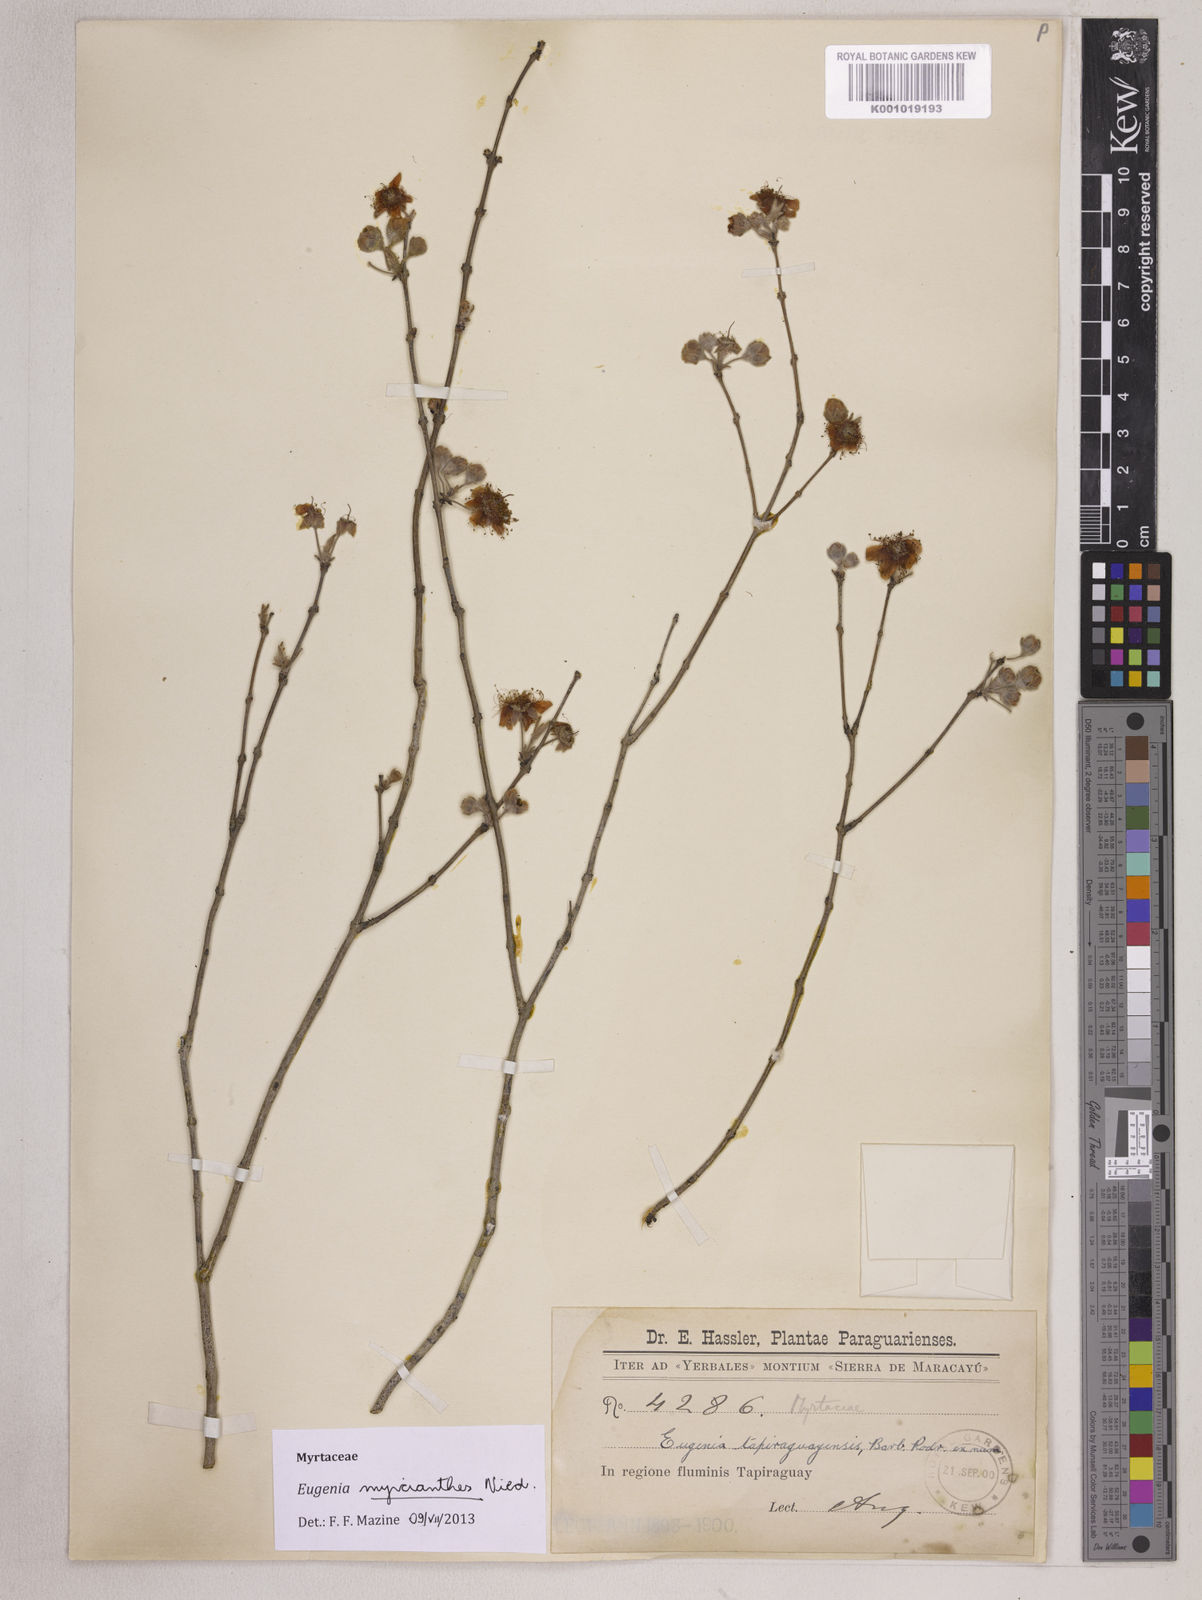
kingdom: Plantae
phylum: Tracheophyta
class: Magnoliopsida
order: Myrtales
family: Myrtaceae
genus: Eugenia
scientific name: Eugenia myrcianthes
